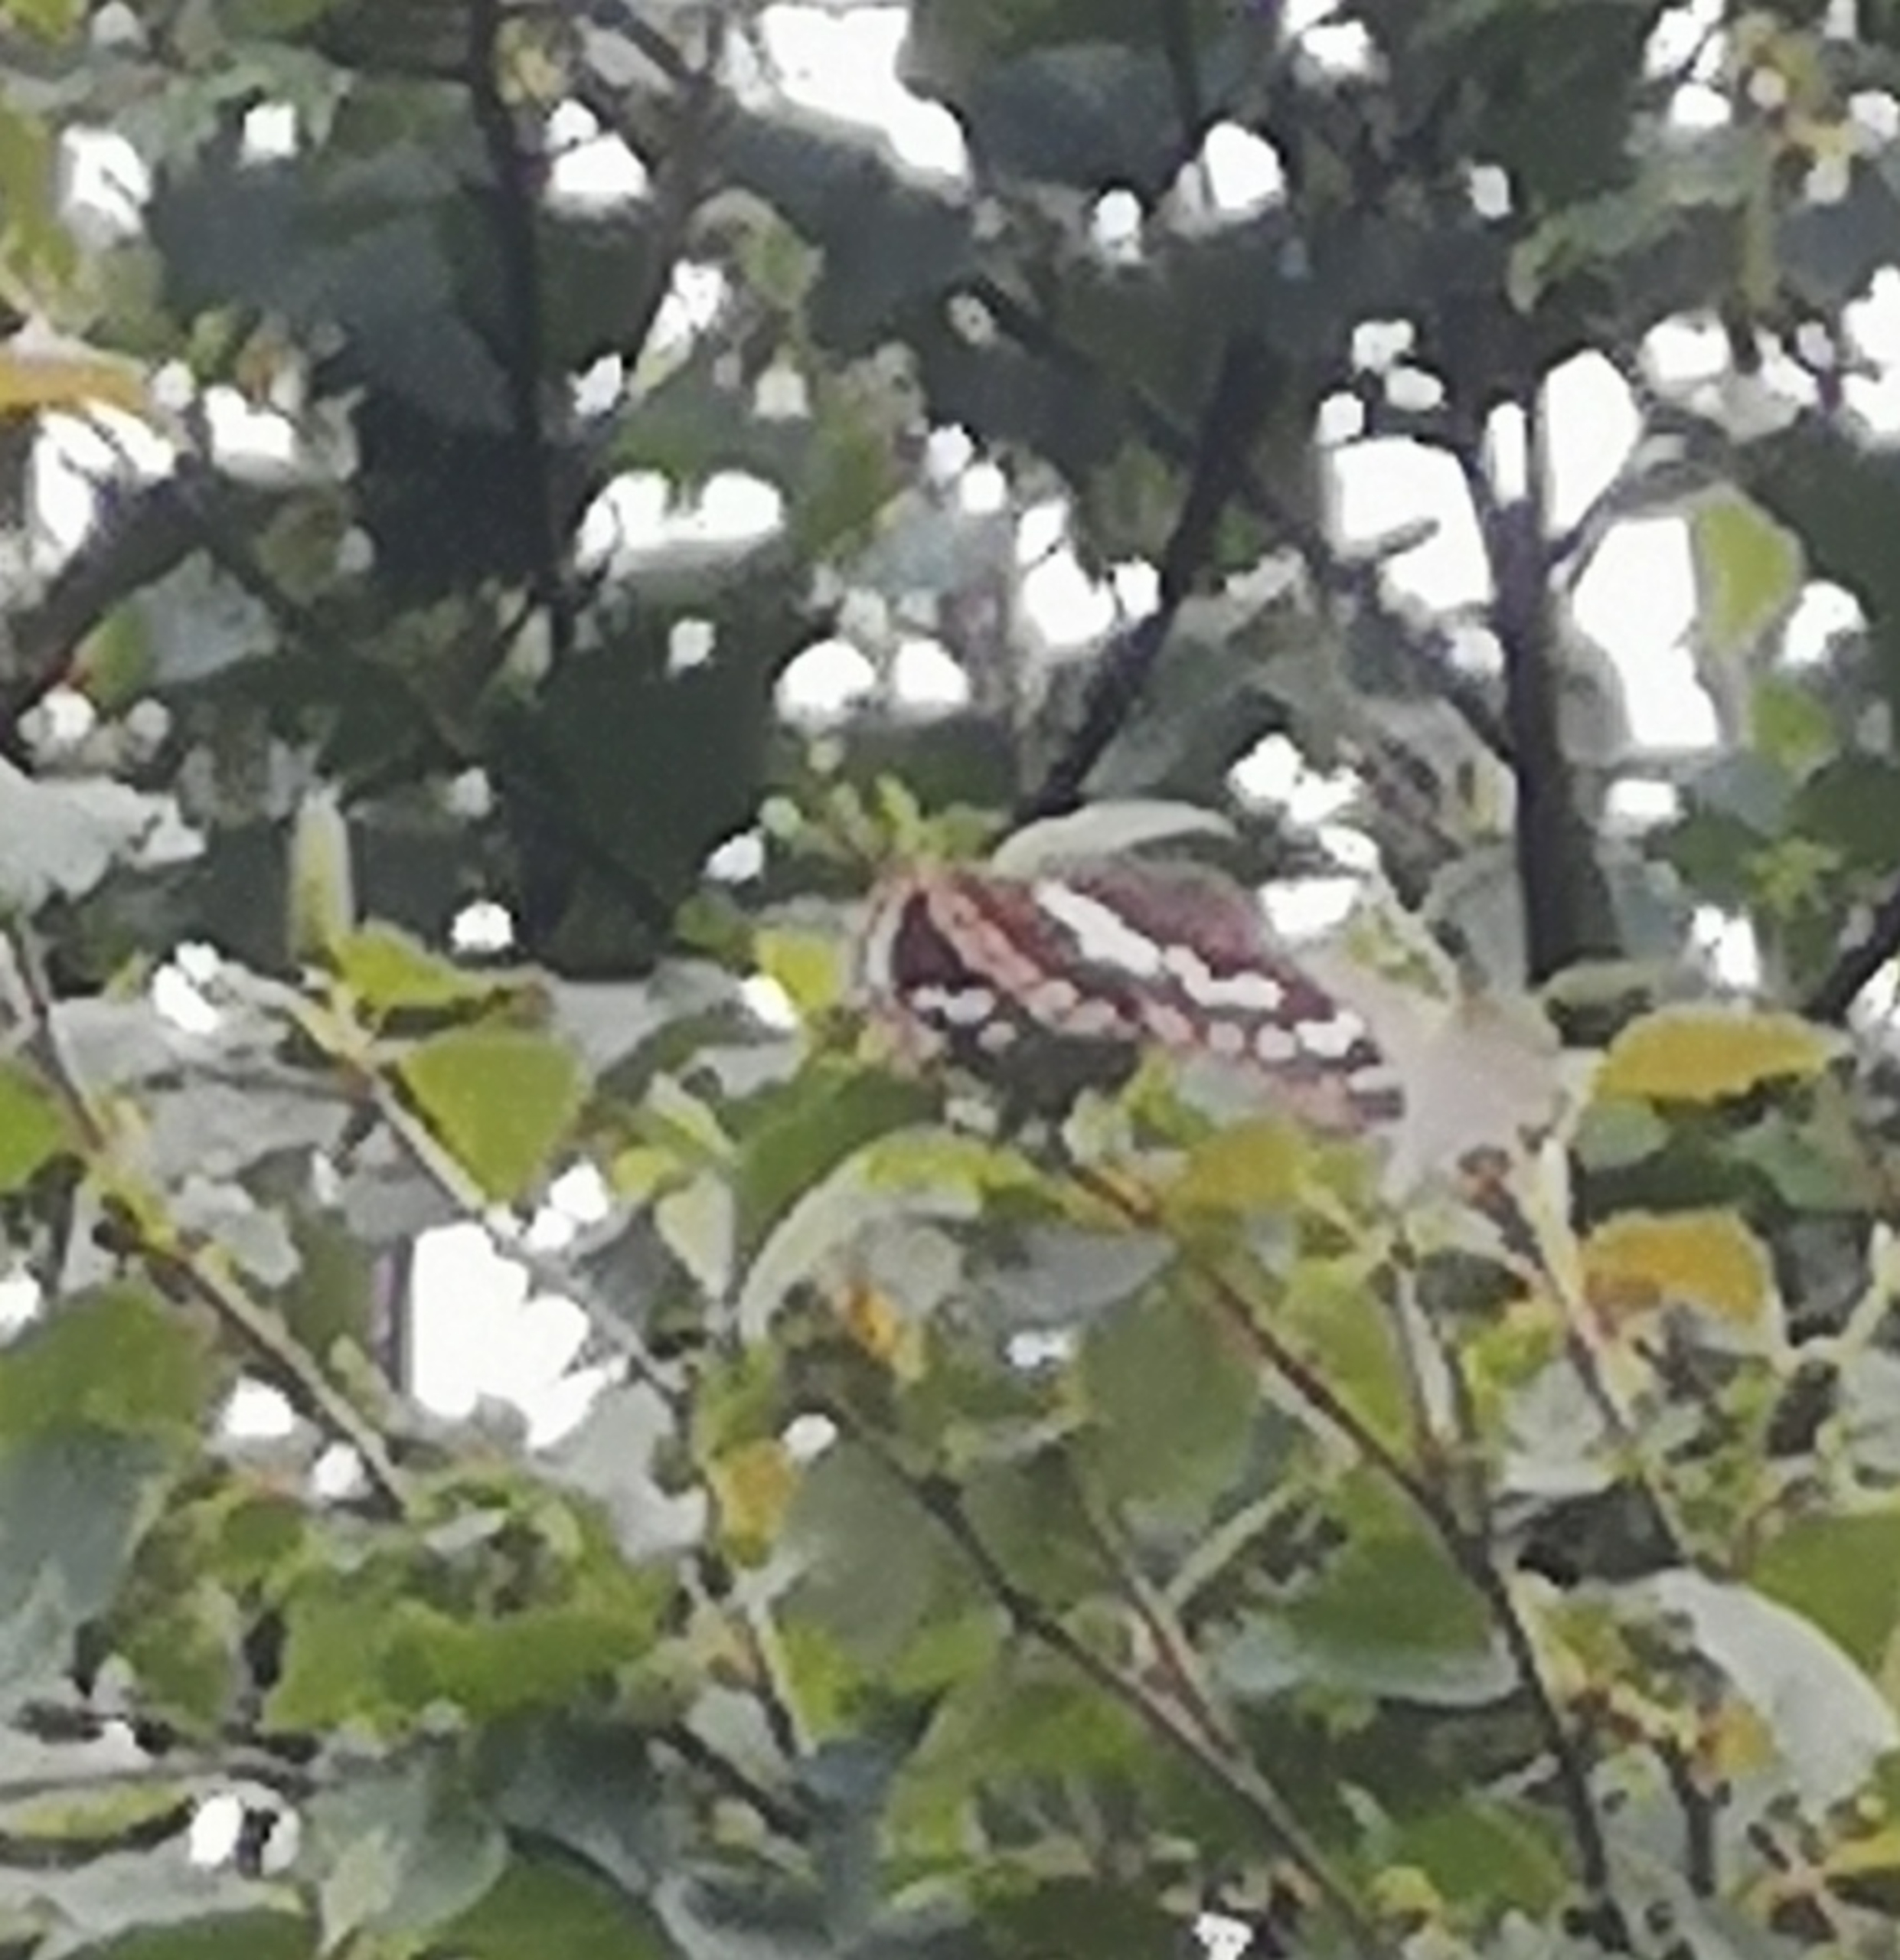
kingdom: Animalia
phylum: Arthropoda
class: Insecta
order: Lepidoptera
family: Nymphalidae
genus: Apatura
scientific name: Apatura iris
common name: Iris
